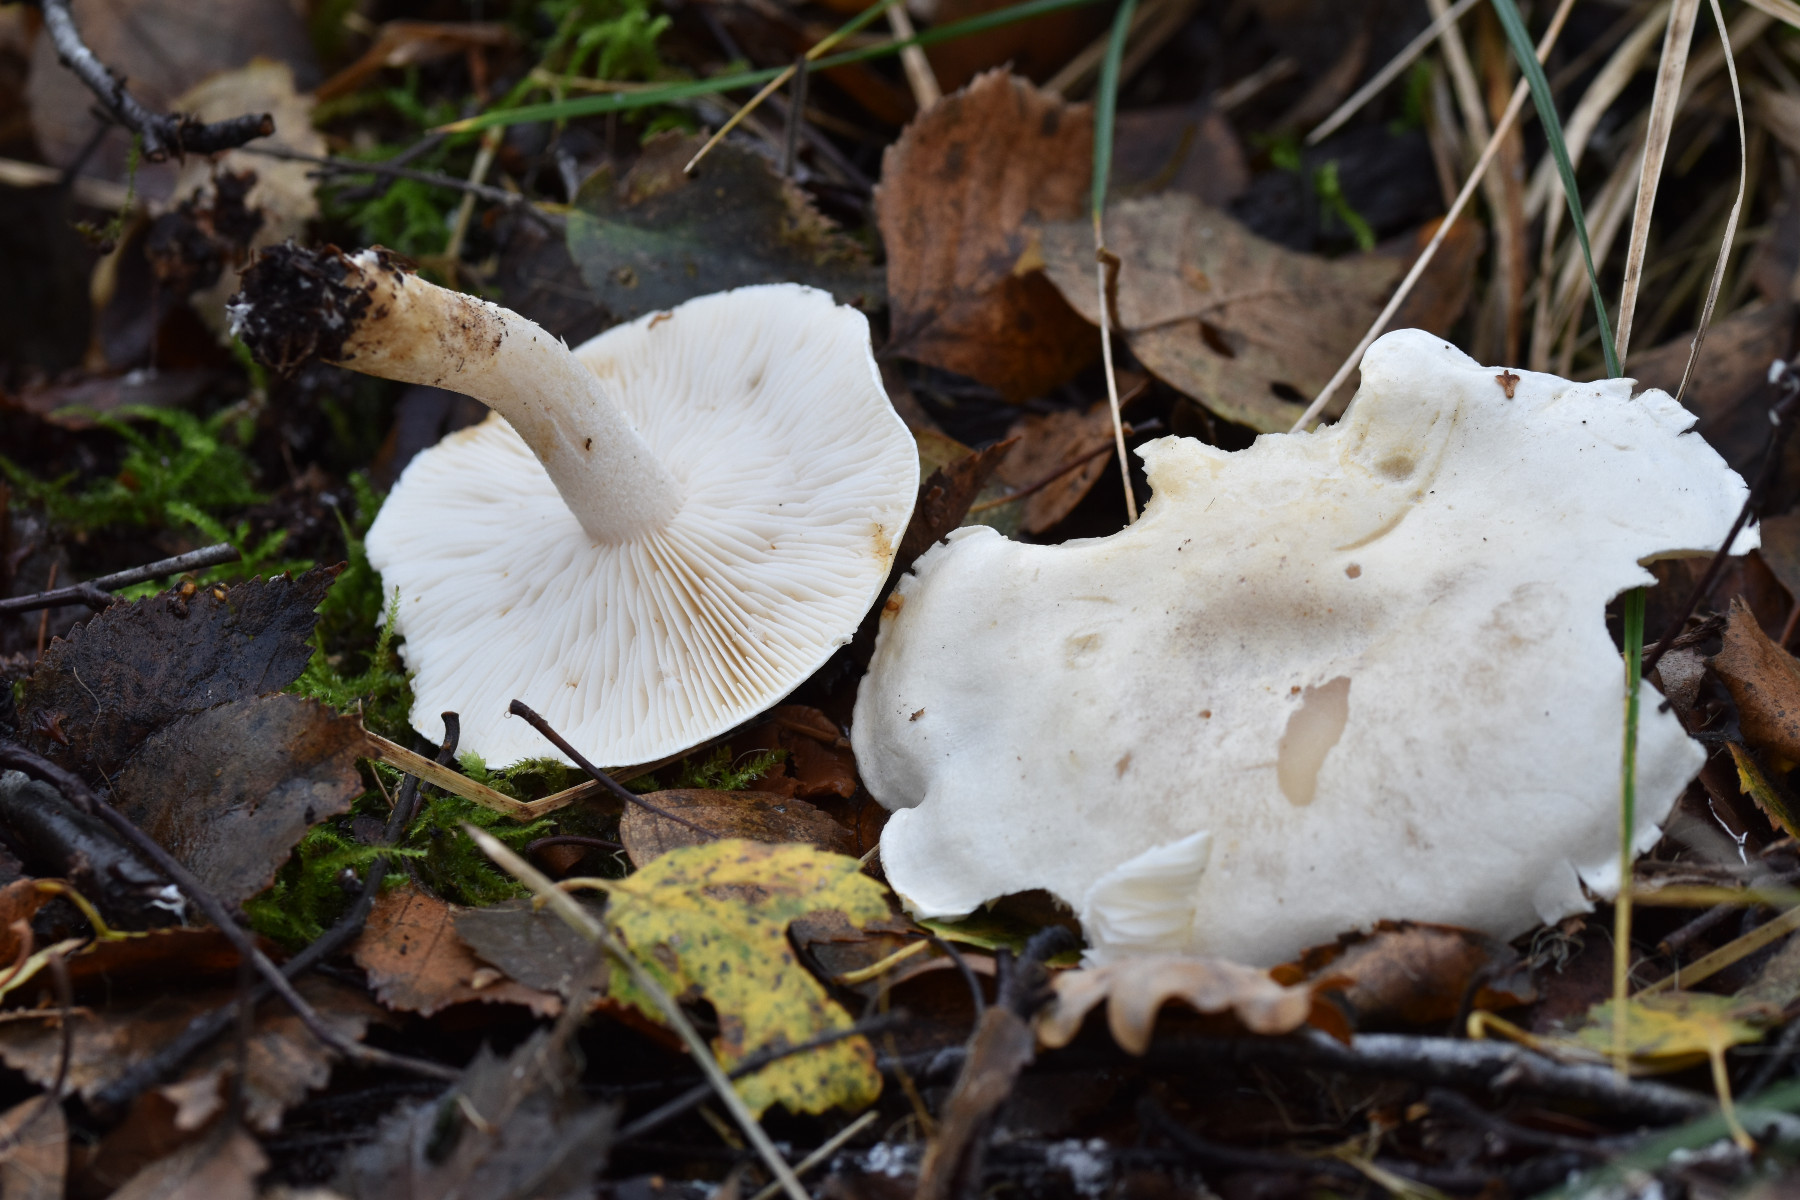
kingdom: Fungi
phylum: Basidiomycota
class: Agaricomycetes
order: Agaricales
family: Tricholomataceae
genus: Tricholoma
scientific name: Tricholoma stiparophyllum
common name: hvid ridderhat
